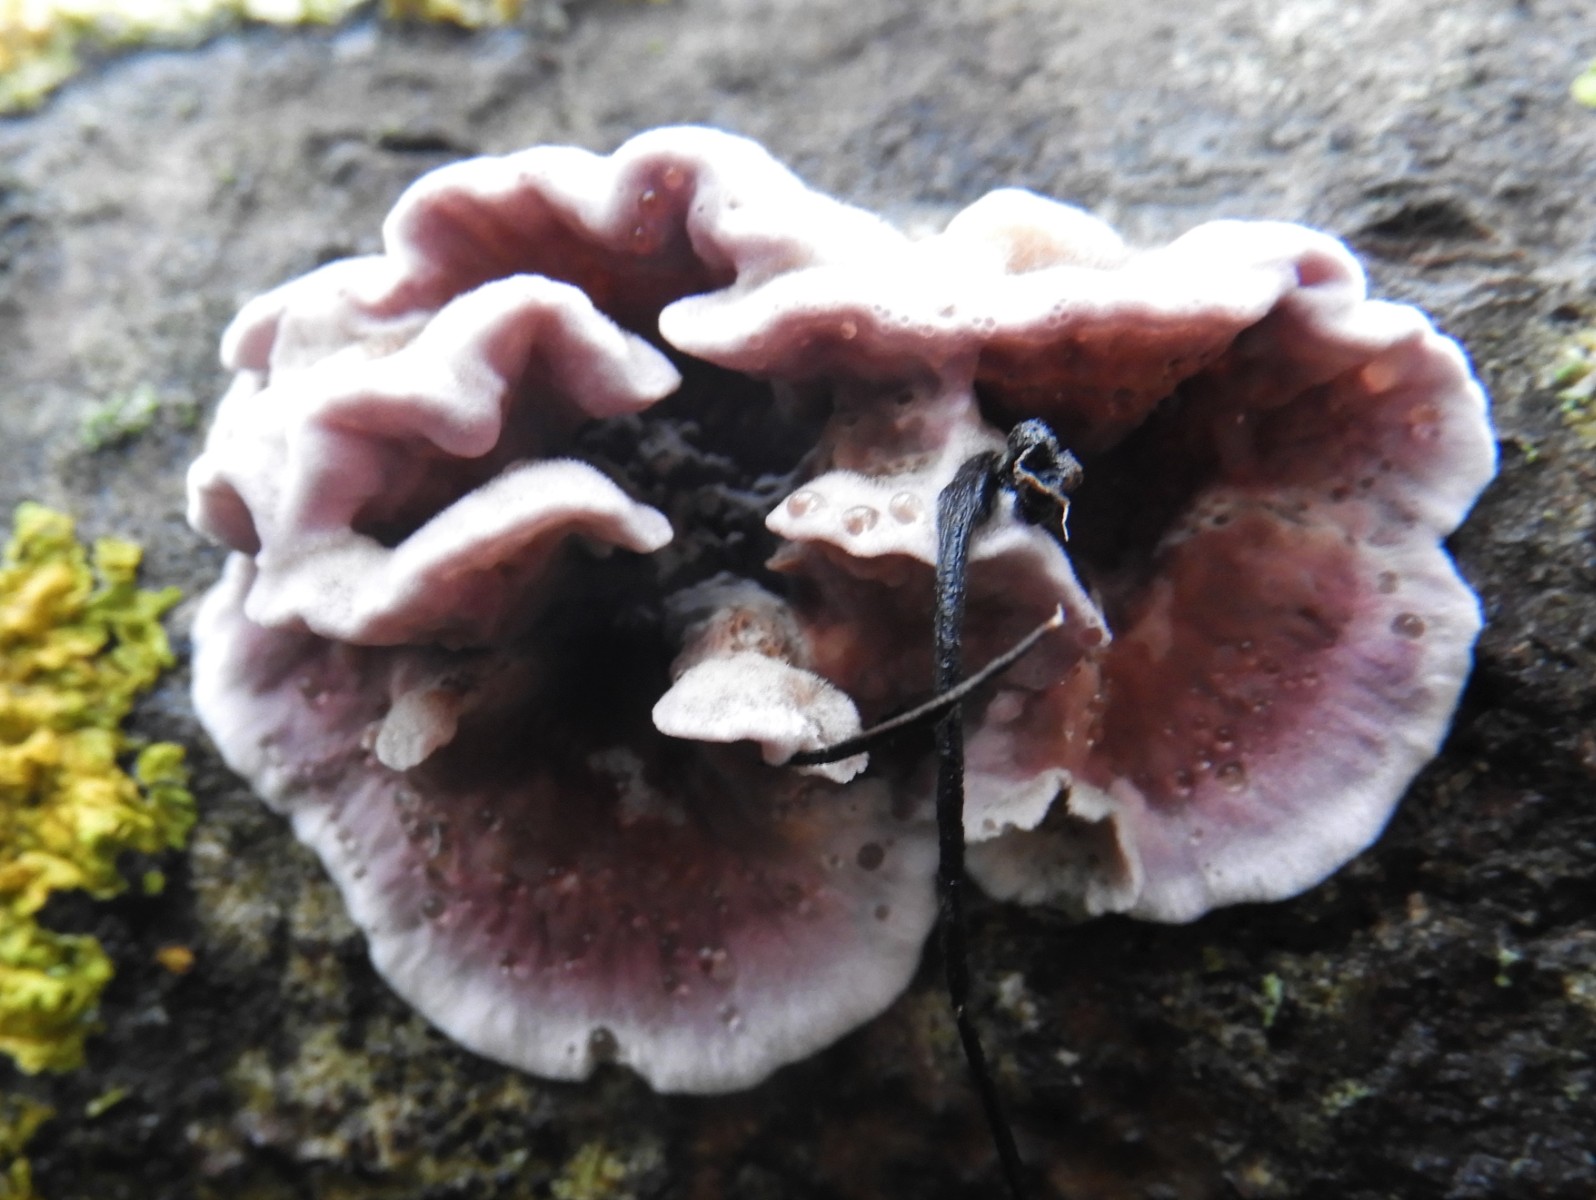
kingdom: Fungi
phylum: Basidiomycota
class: Agaricomycetes
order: Agaricales
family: Cyphellaceae
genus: Chondrostereum
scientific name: Chondrostereum purpureum
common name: purpurlædersvamp
